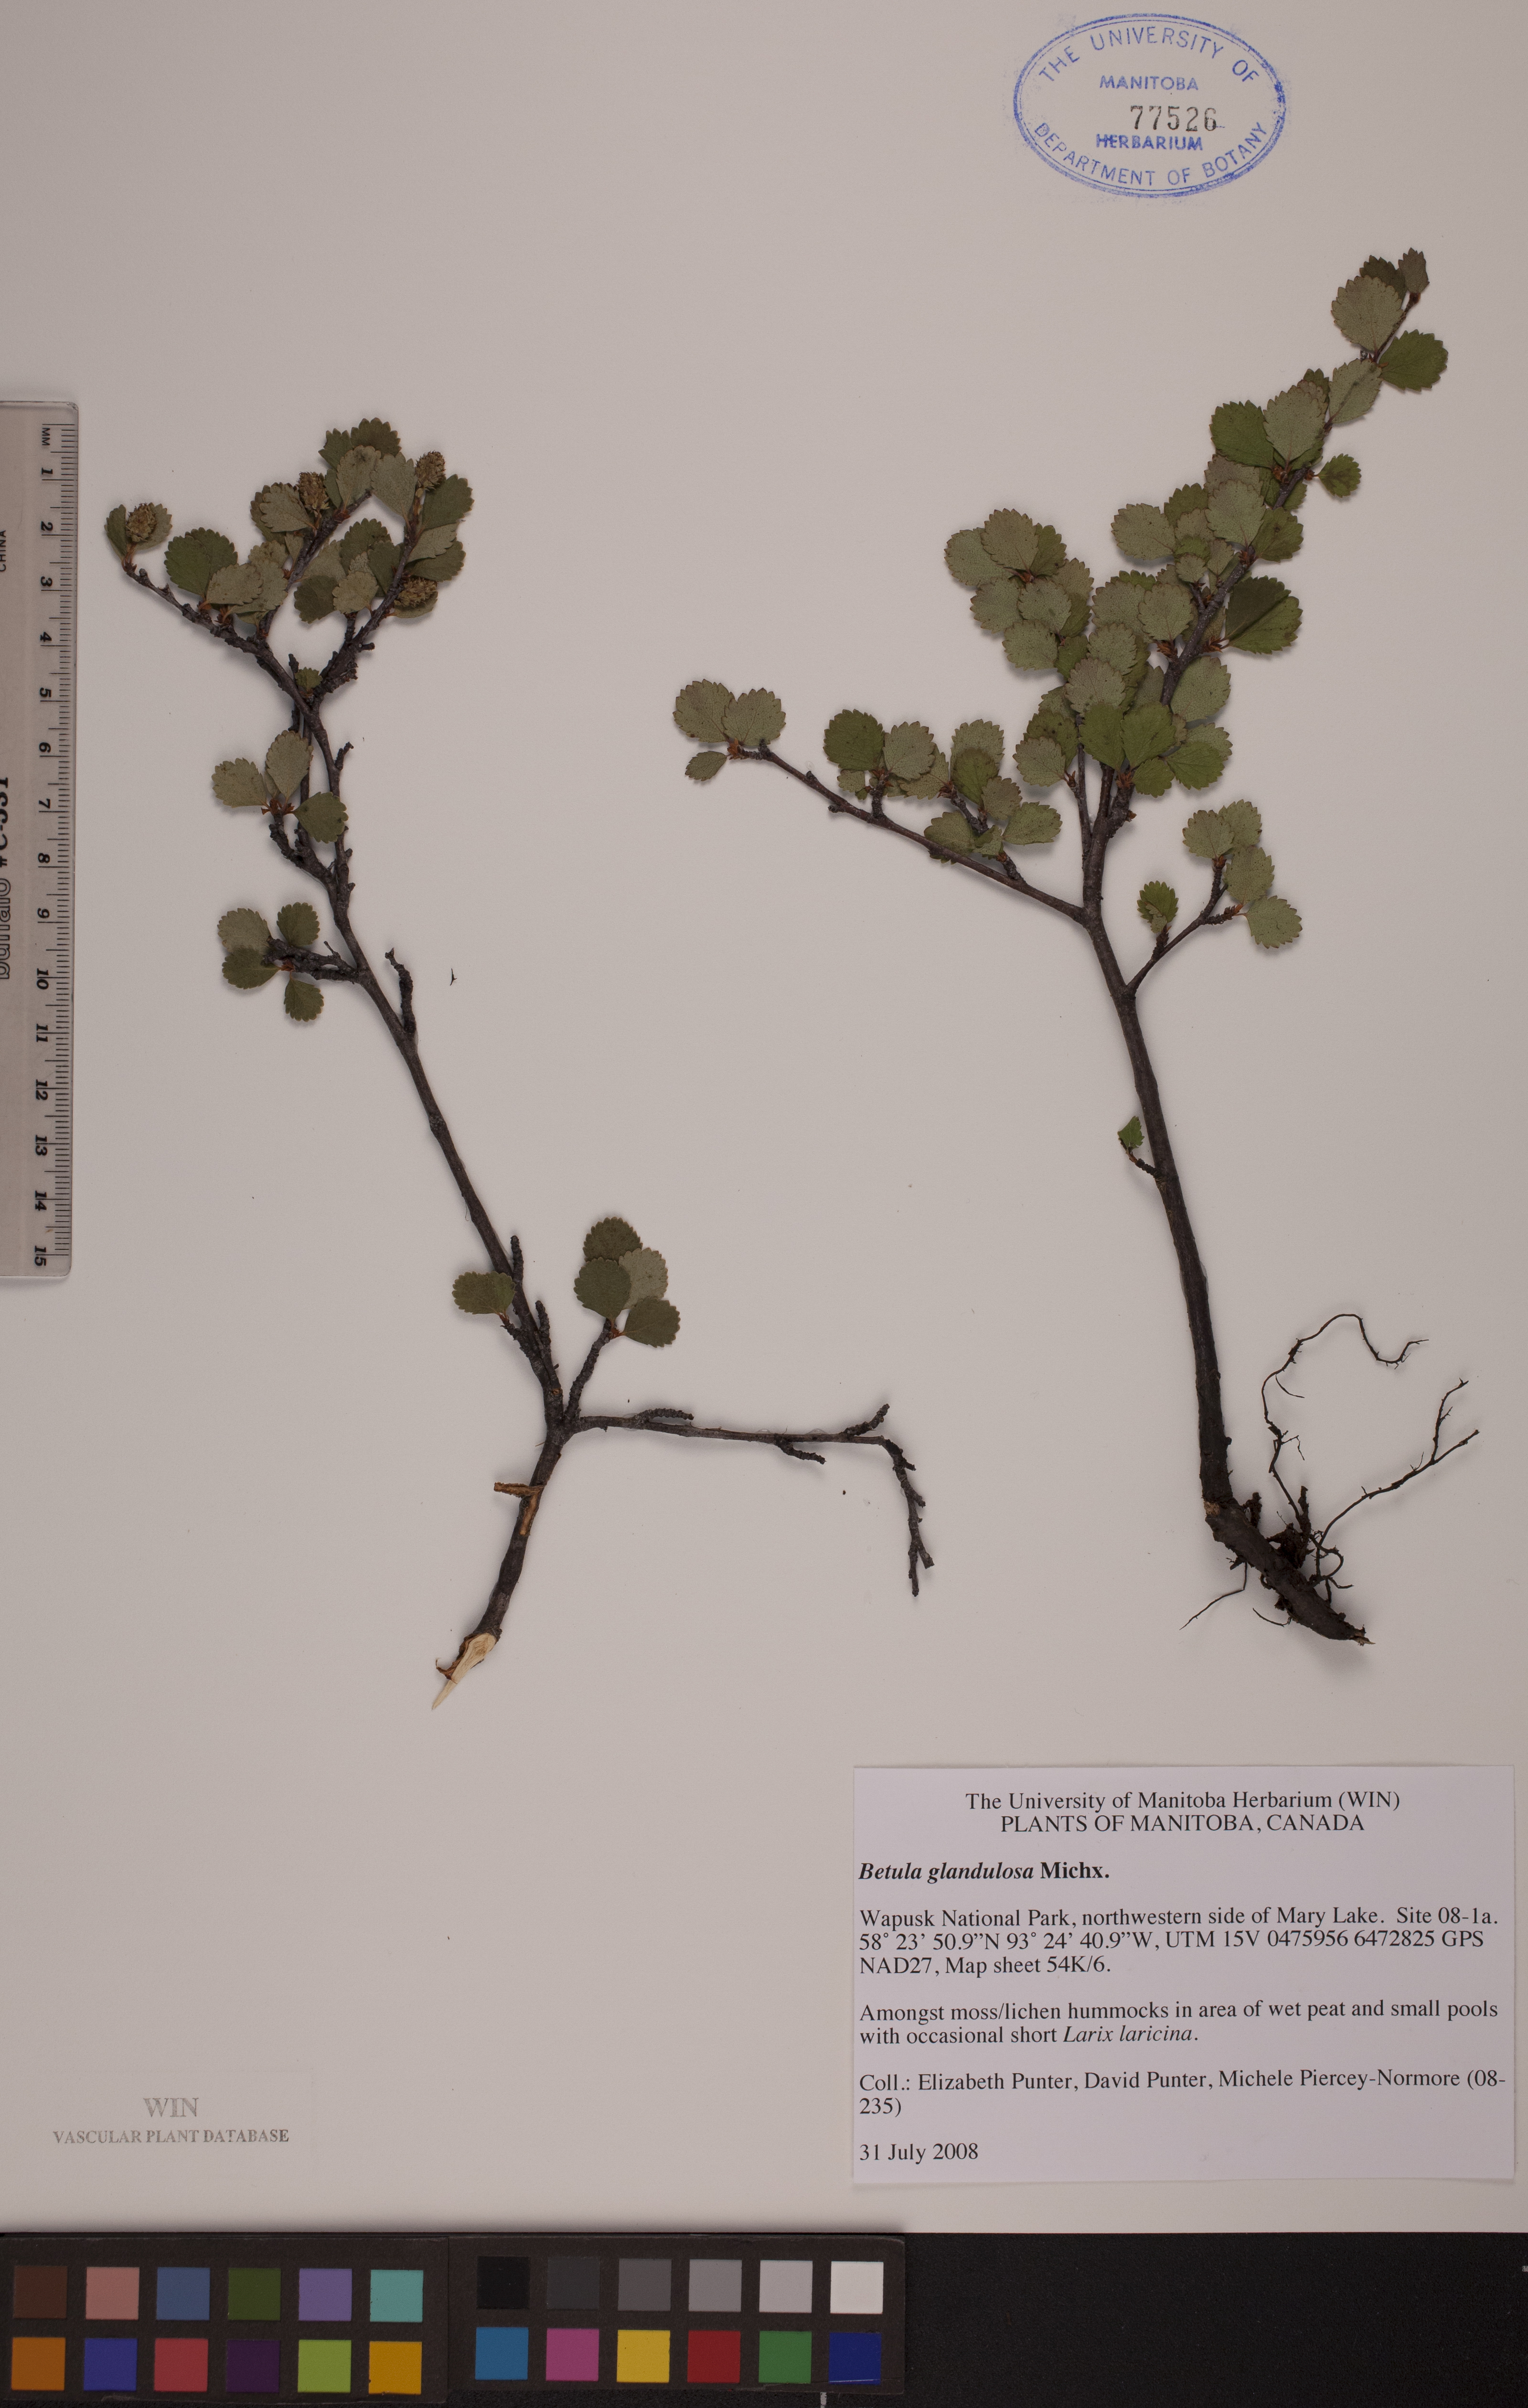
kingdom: Plantae
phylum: Tracheophyta
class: Magnoliopsida
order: Fagales
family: Betulaceae
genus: Betula
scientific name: Betula glandulosa
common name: Dwarf birch
